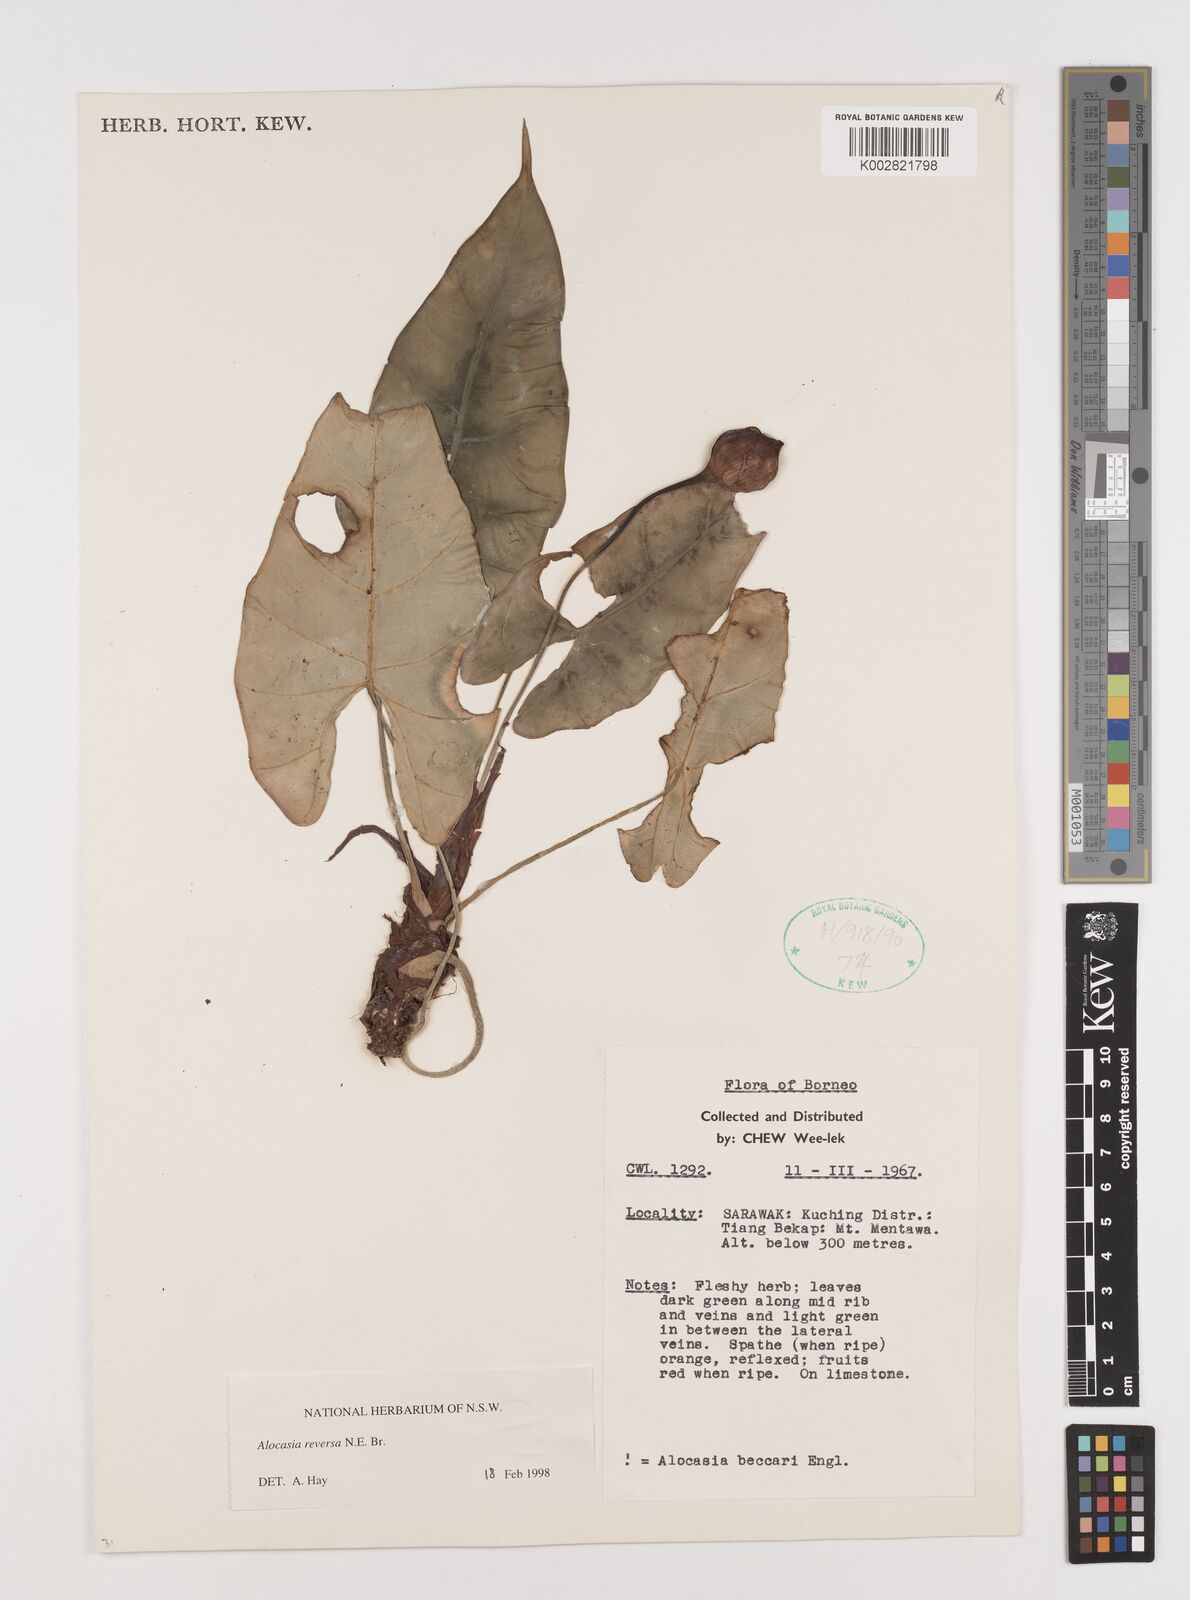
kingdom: Plantae
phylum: Tracheophyta
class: Liliopsida
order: Alismatales
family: Araceae
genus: Alocasia
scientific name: Alocasia reversa
